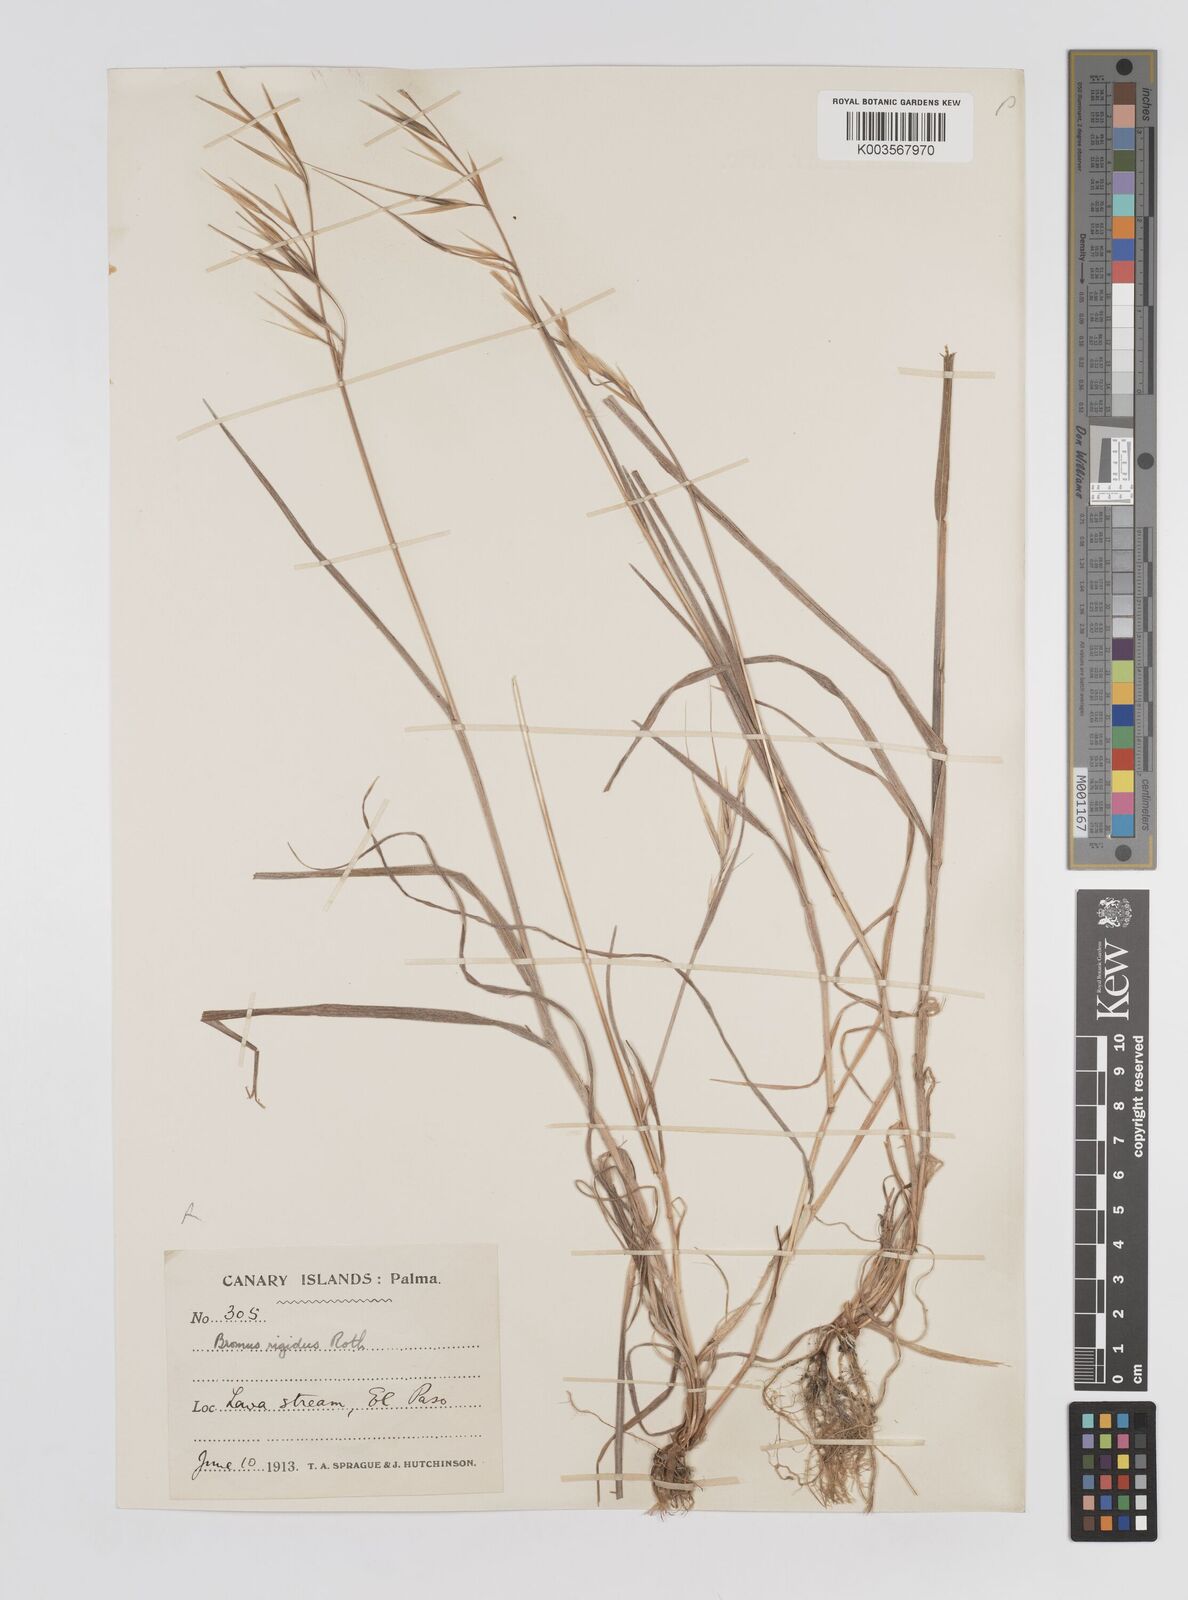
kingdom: Plantae
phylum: Tracheophyta
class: Liliopsida
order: Poales
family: Poaceae
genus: Bromus
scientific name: Bromus rigidus
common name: Ripgut brome
